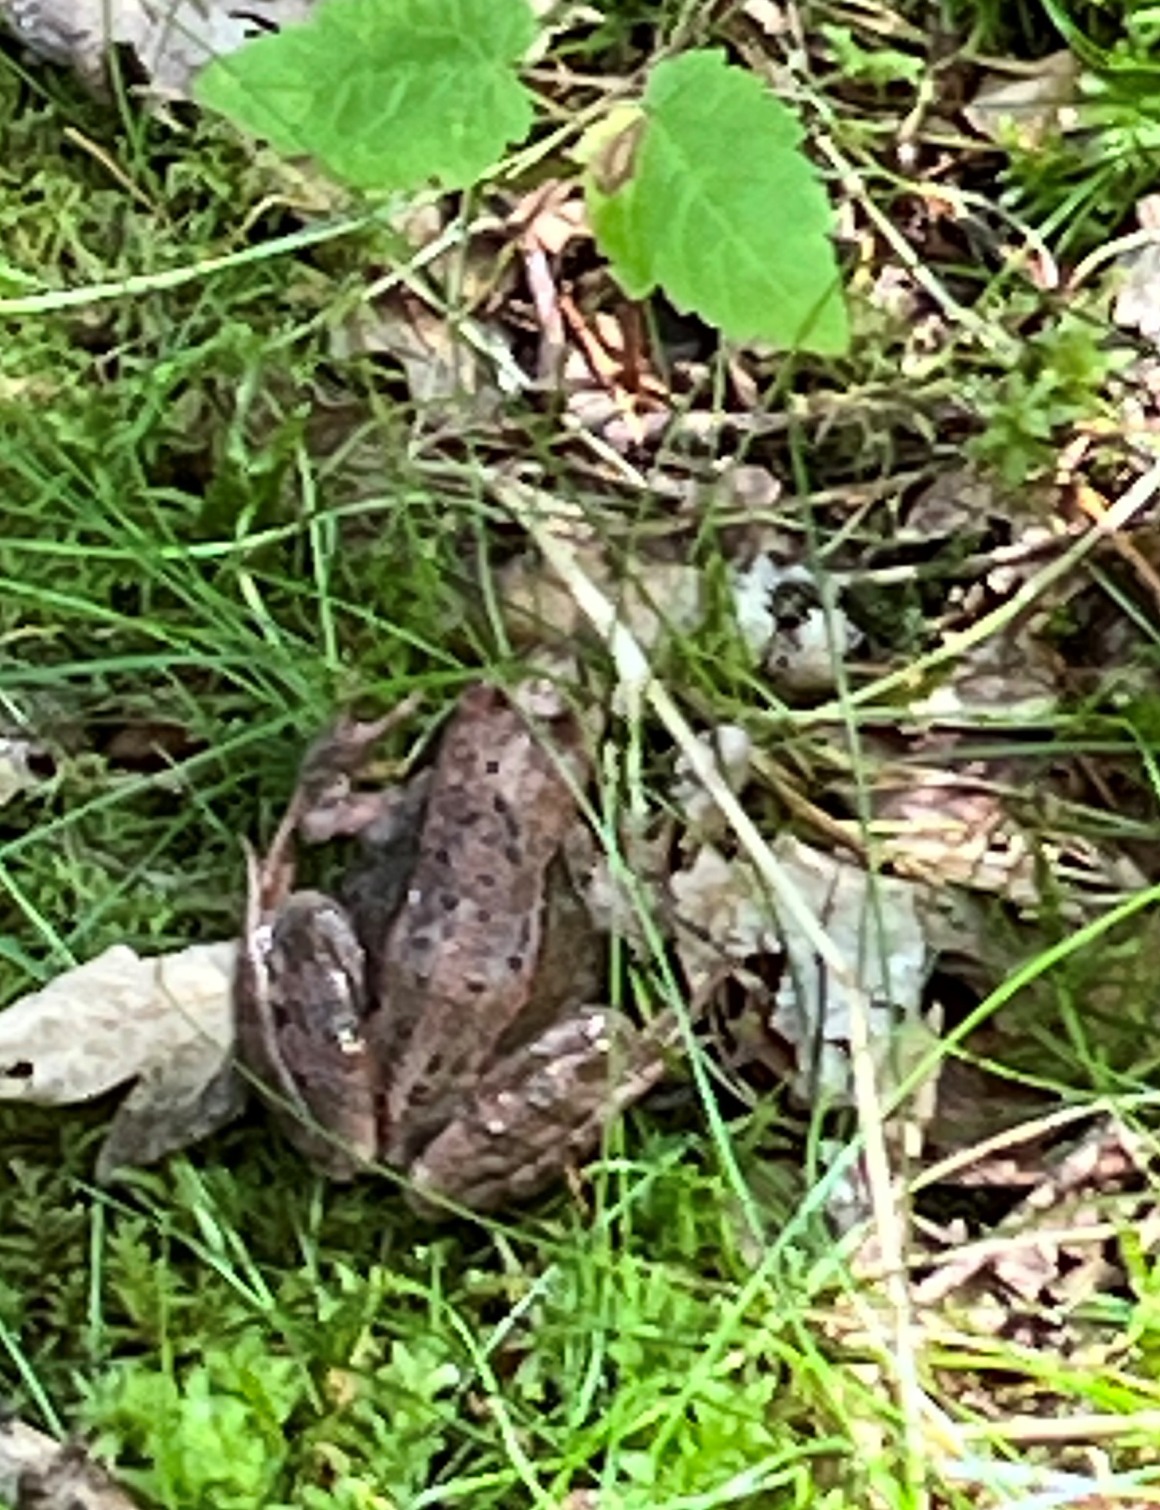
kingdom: Animalia
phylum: Chordata
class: Amphibia
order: Anura
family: Ranidae
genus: Rana
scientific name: Rana
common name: Rana
